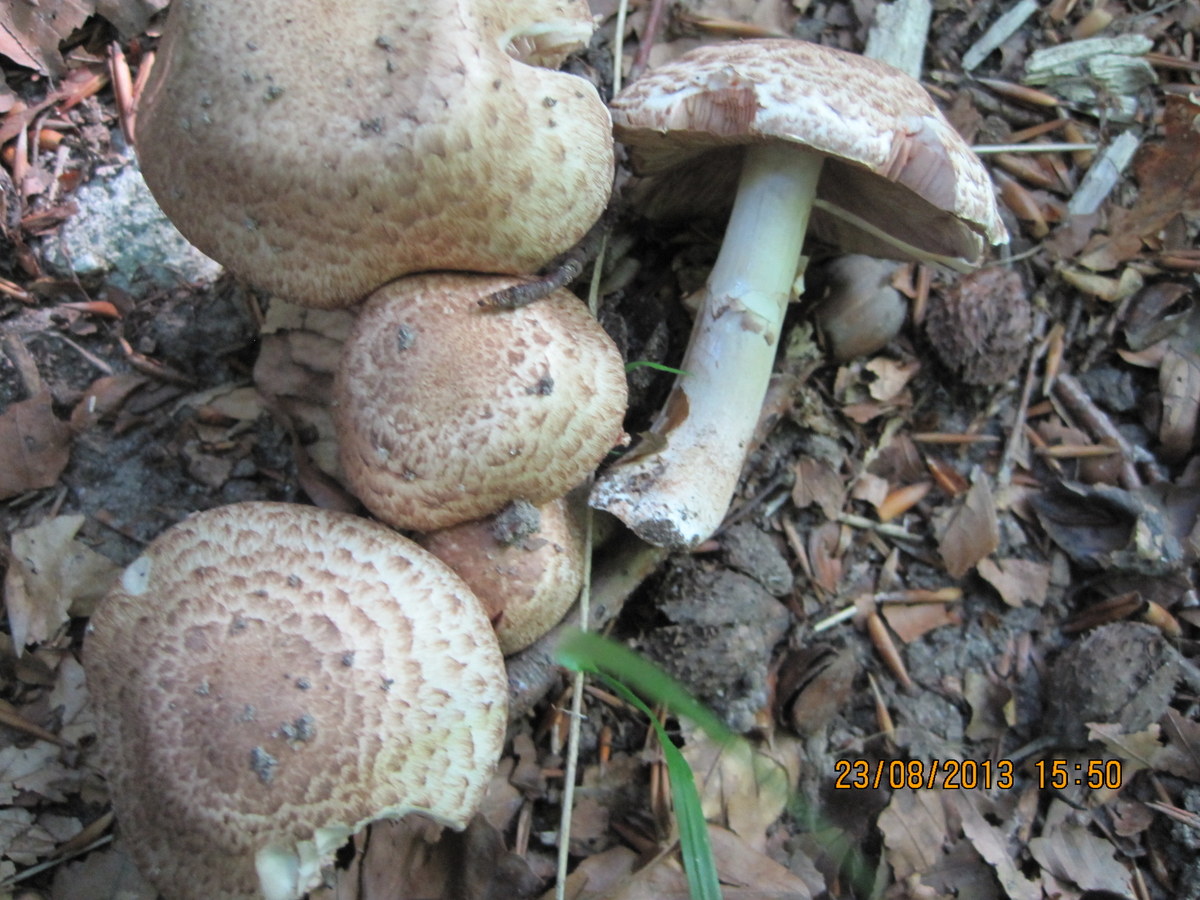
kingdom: Fungi
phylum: Basidiomycota
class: Agaricomycetes
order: Agaricales
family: Agaricaceae
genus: Agaricus
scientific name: Agaricus sylvaticus
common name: lille blod-champignon
